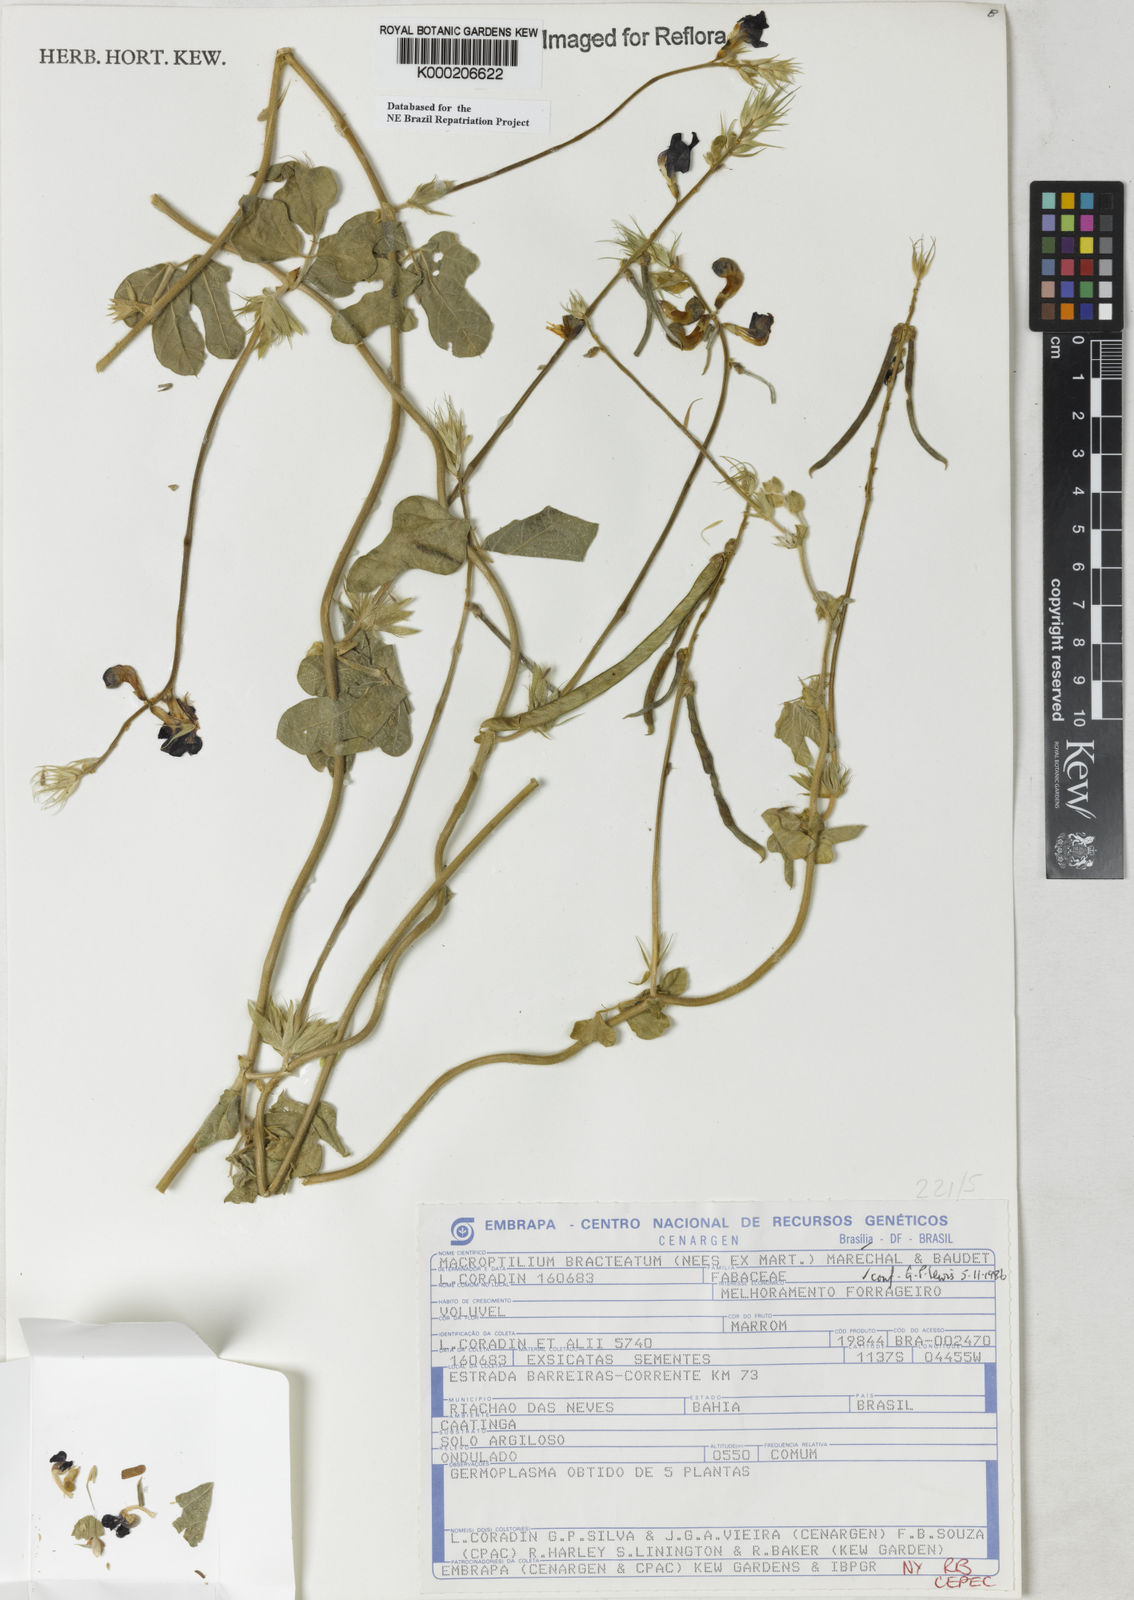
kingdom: Plantae
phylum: Tracheophyta
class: Magnoliopsida
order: Fabales
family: Fabaceae
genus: Macroptilium
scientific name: Macroptilium
